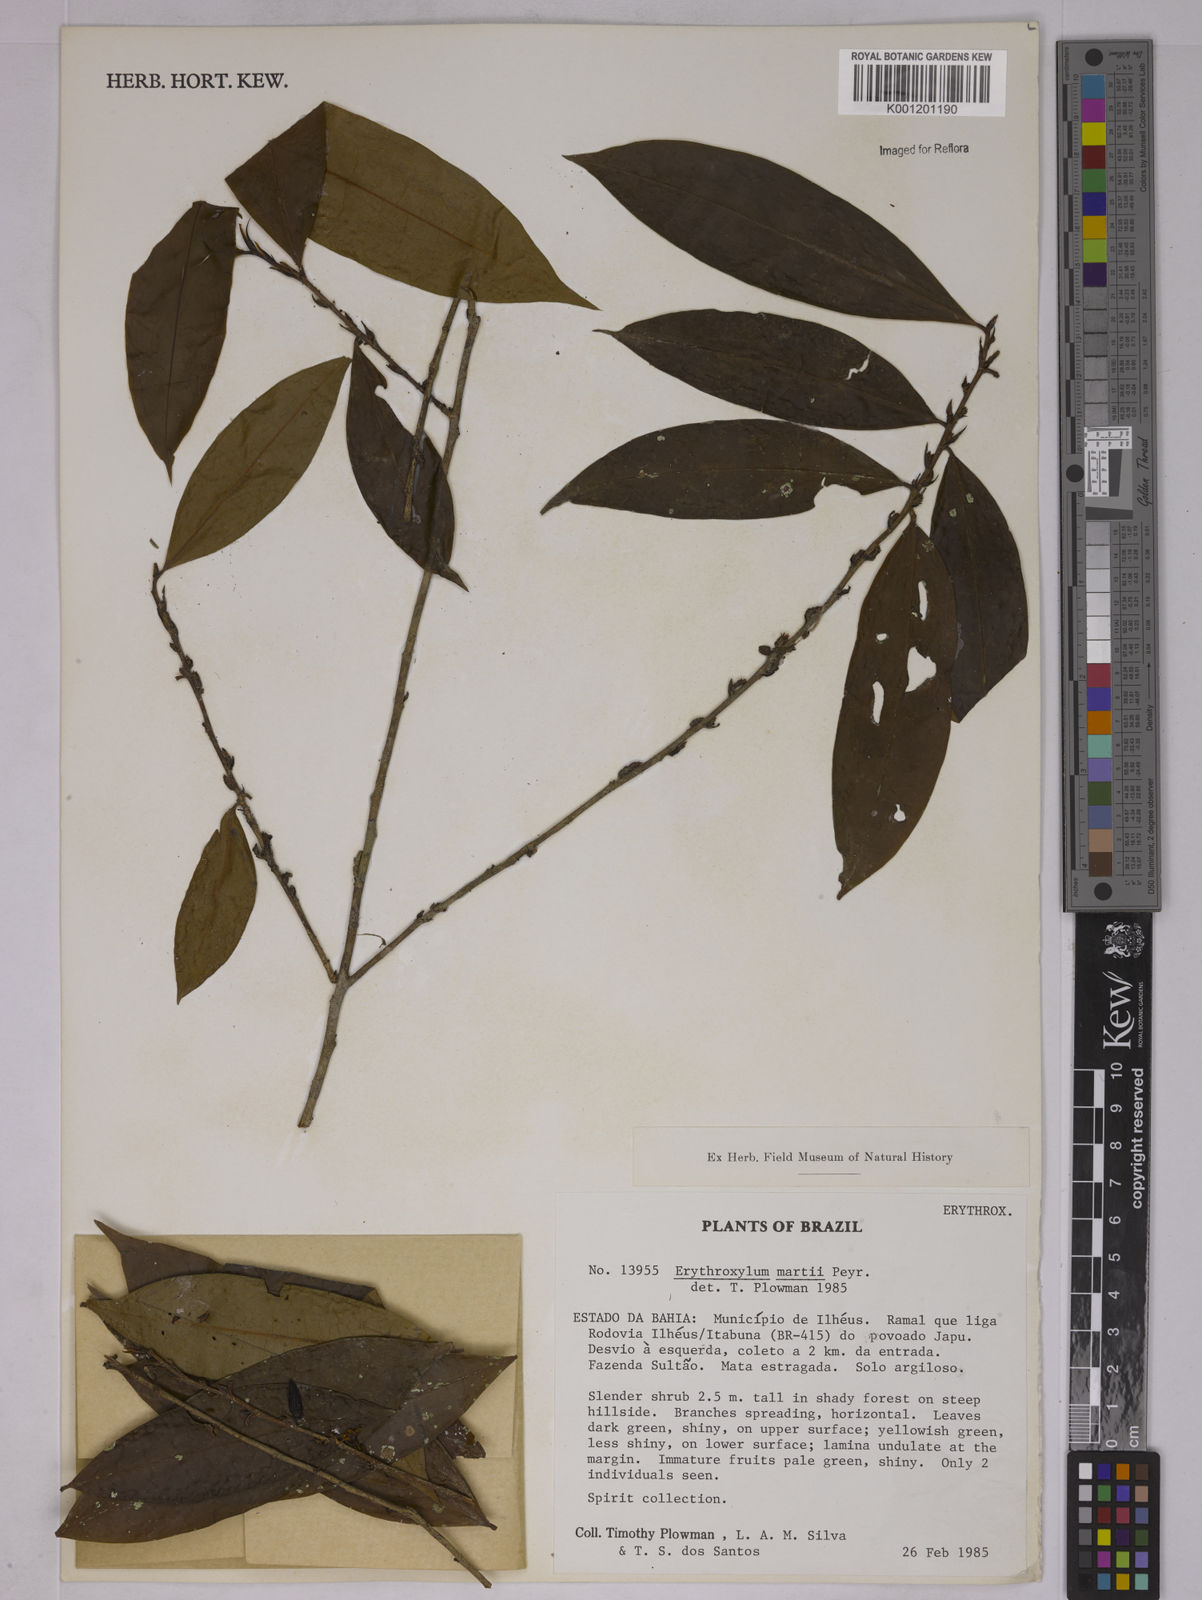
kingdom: Plantae
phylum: Tracheophyta
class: Magnoliopsida
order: Malpighiales
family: Erythroxylaceae
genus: Erythroxylum
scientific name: Erythroxylum martii
